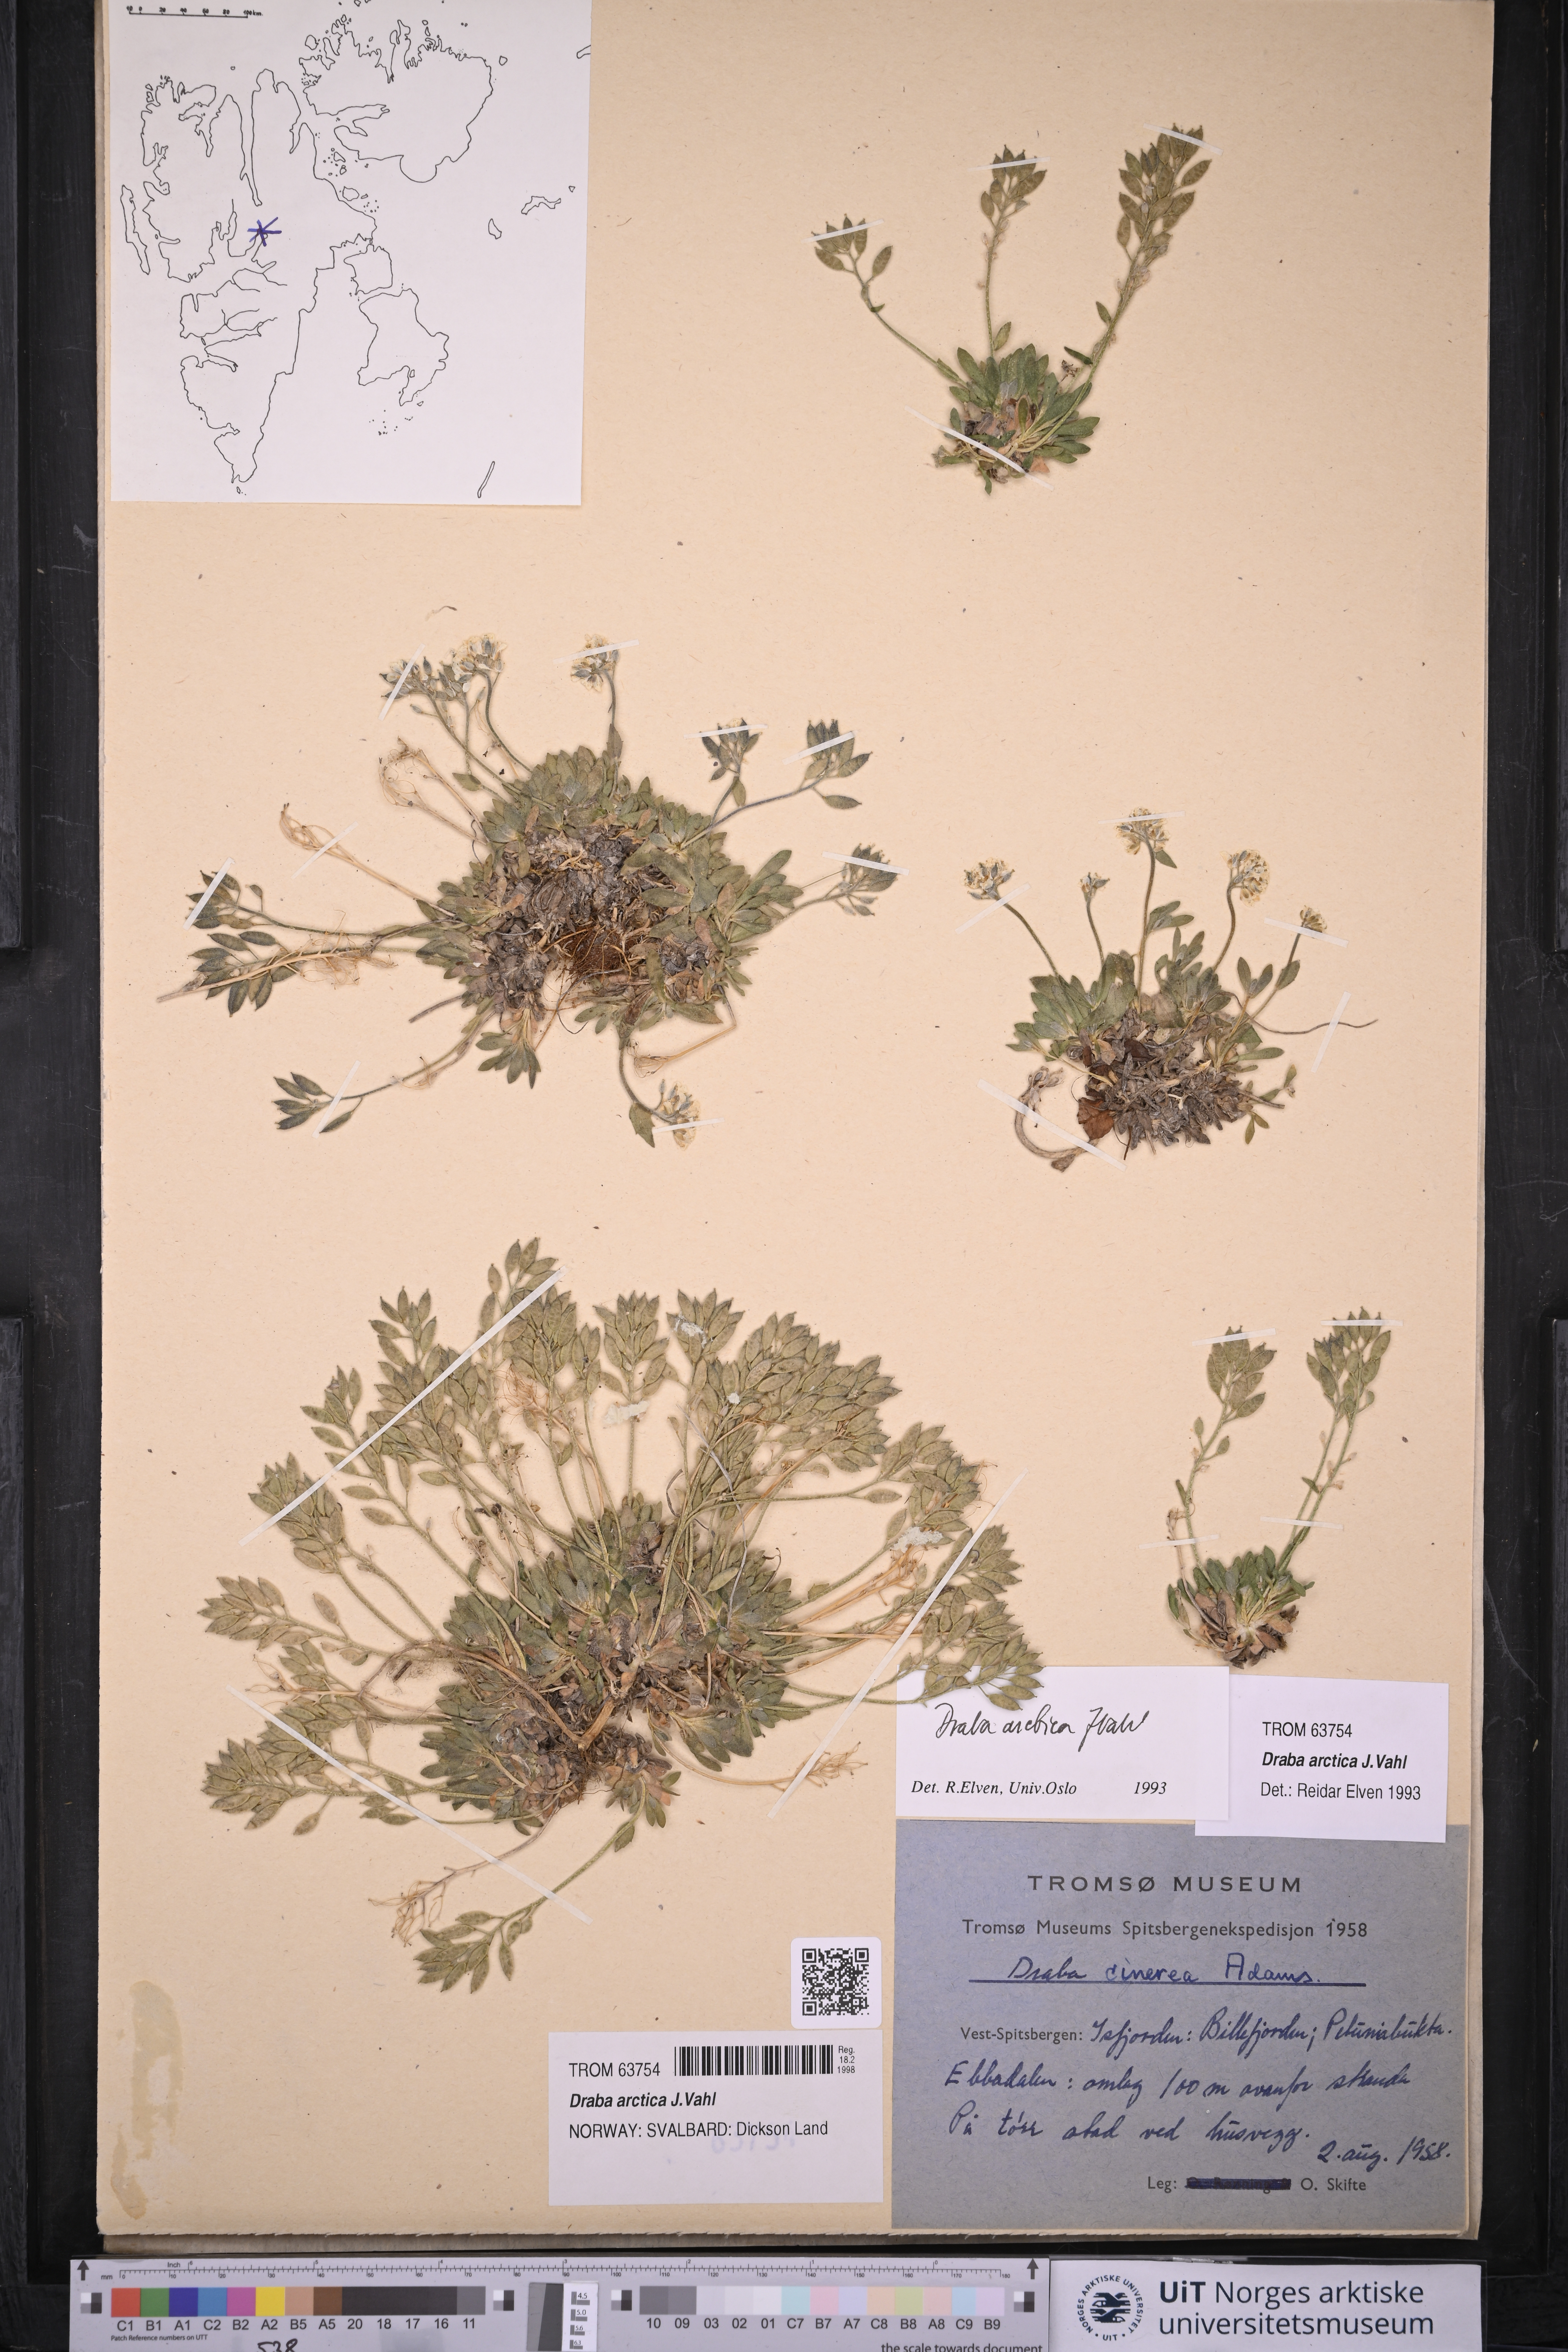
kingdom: Plantae
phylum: Tracheophyta
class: Magnoliopsida
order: Brassicales
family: Brassicaceae
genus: Draba
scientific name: Draba arctica
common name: Arctic draba
